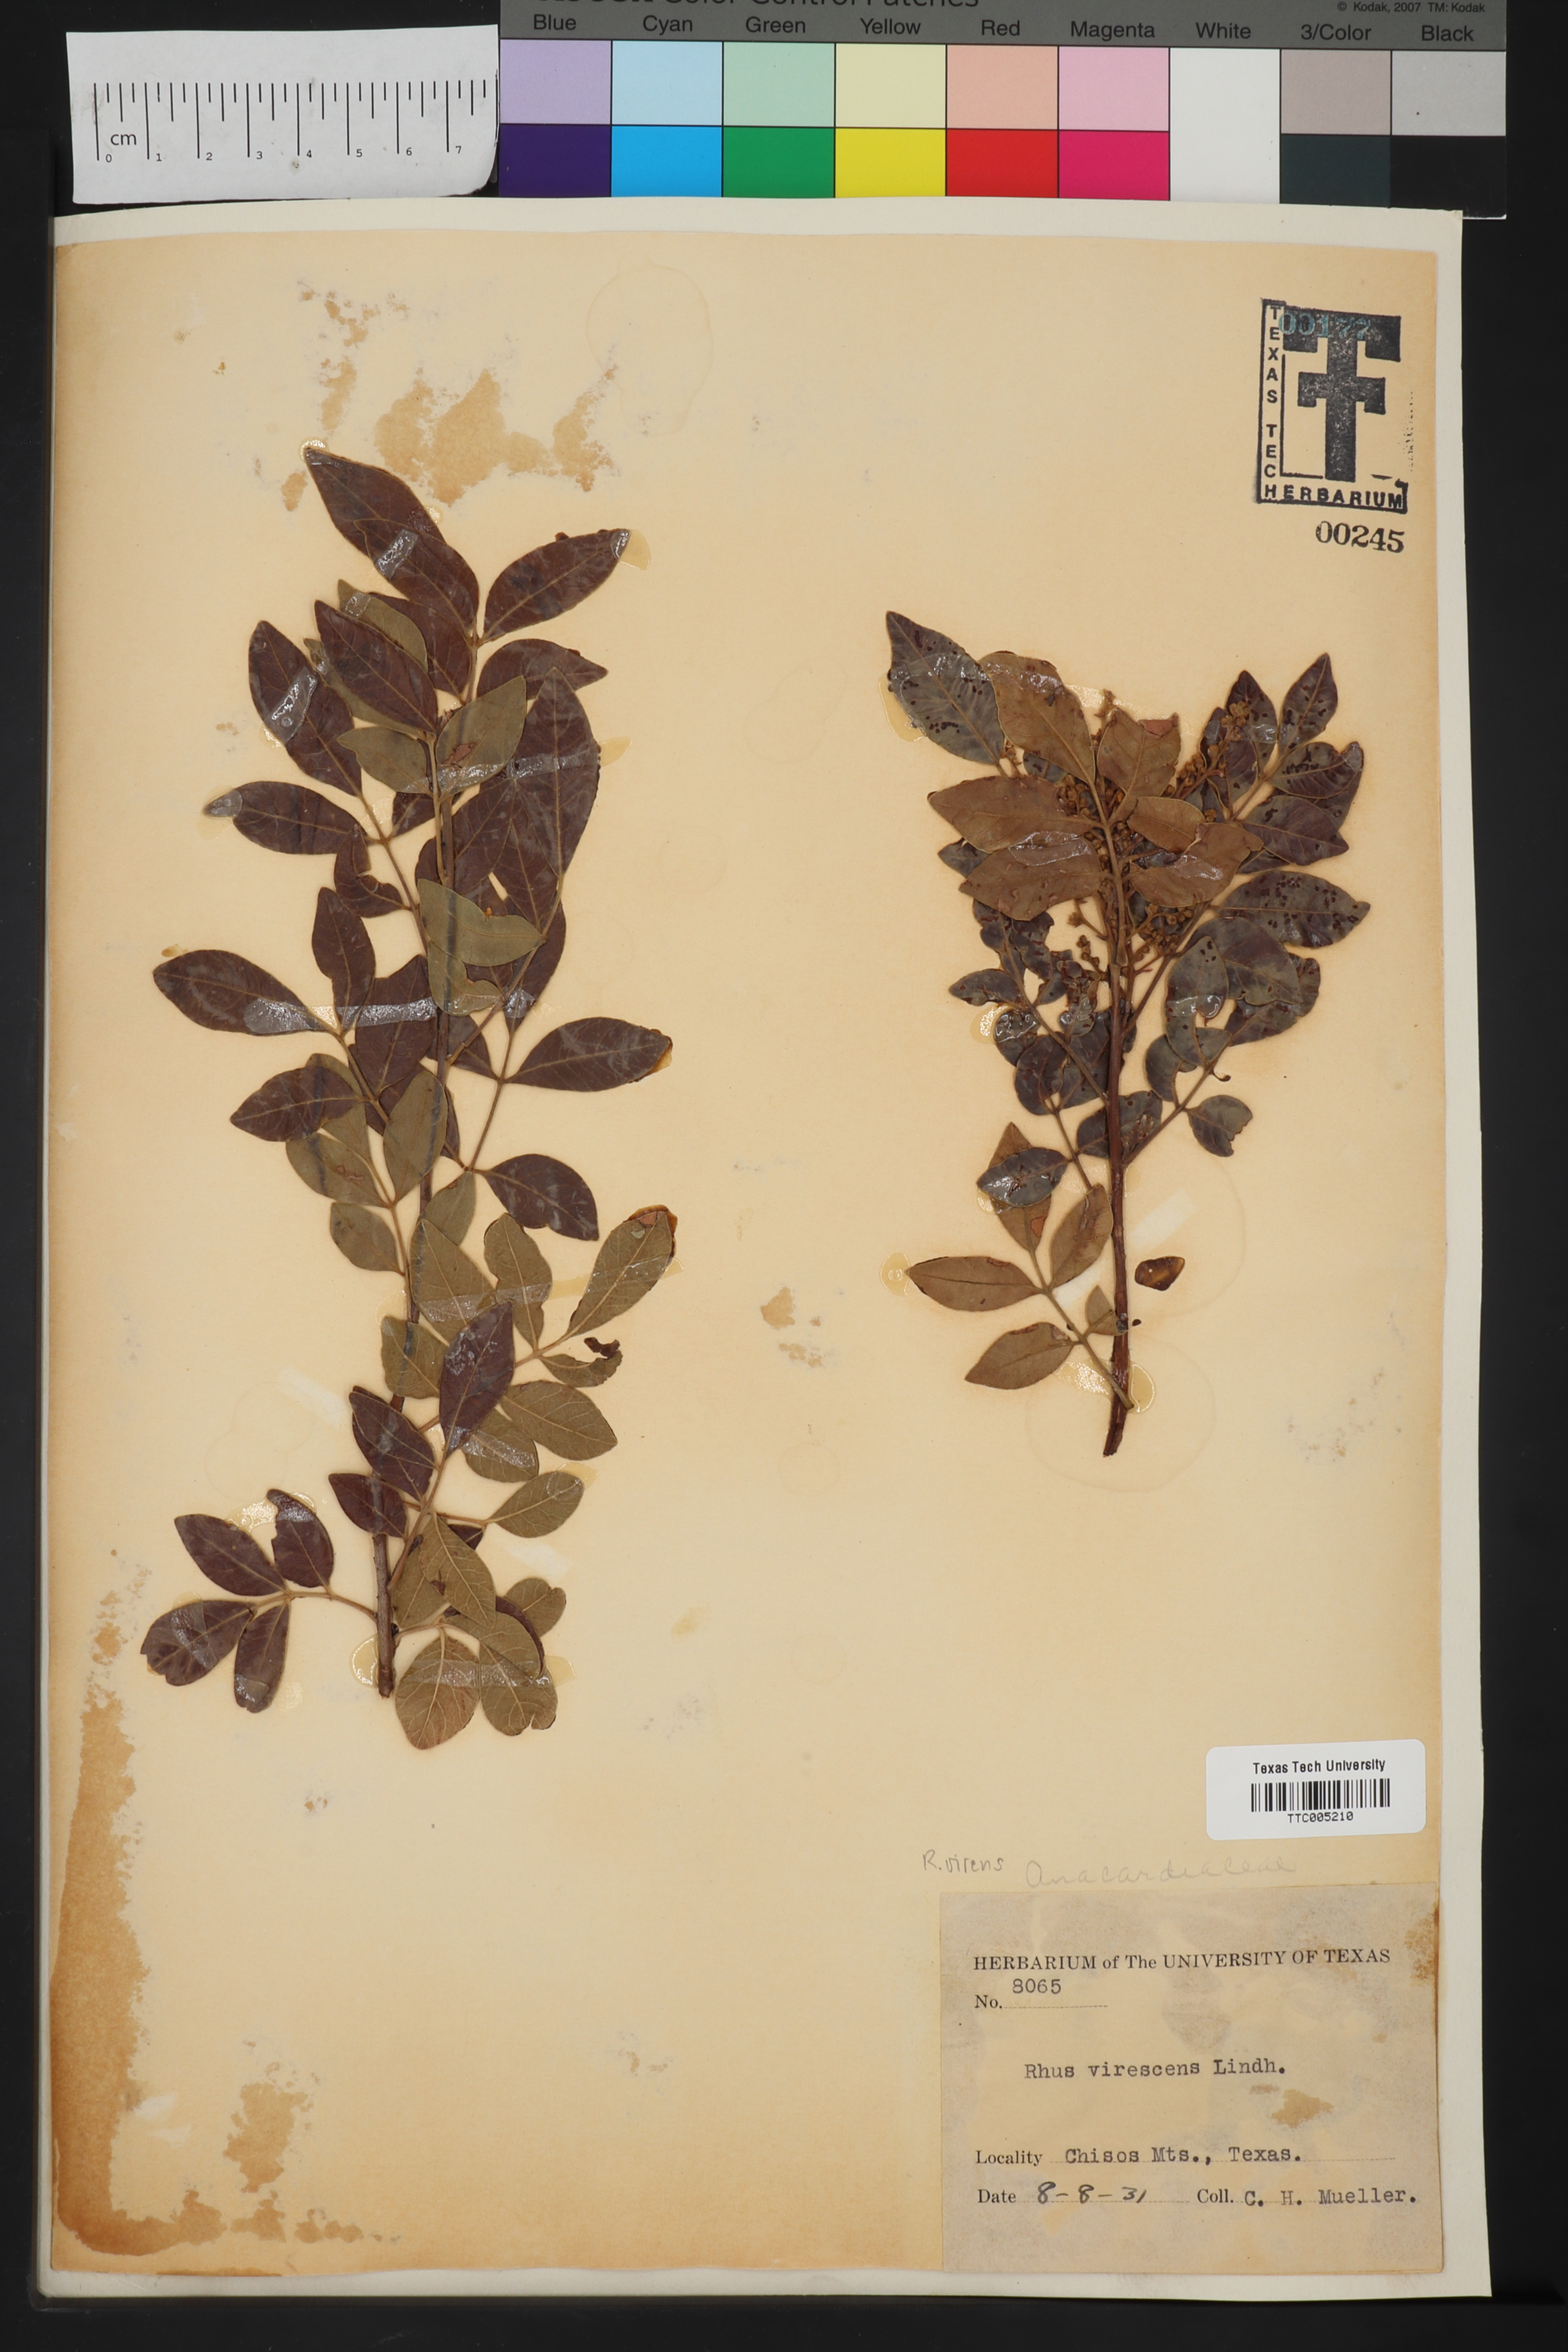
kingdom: Plantae
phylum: Tracheophyta
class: Magnoliopsida
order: Sapindales
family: Anacardiaceae
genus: Rhus
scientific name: Rhus
